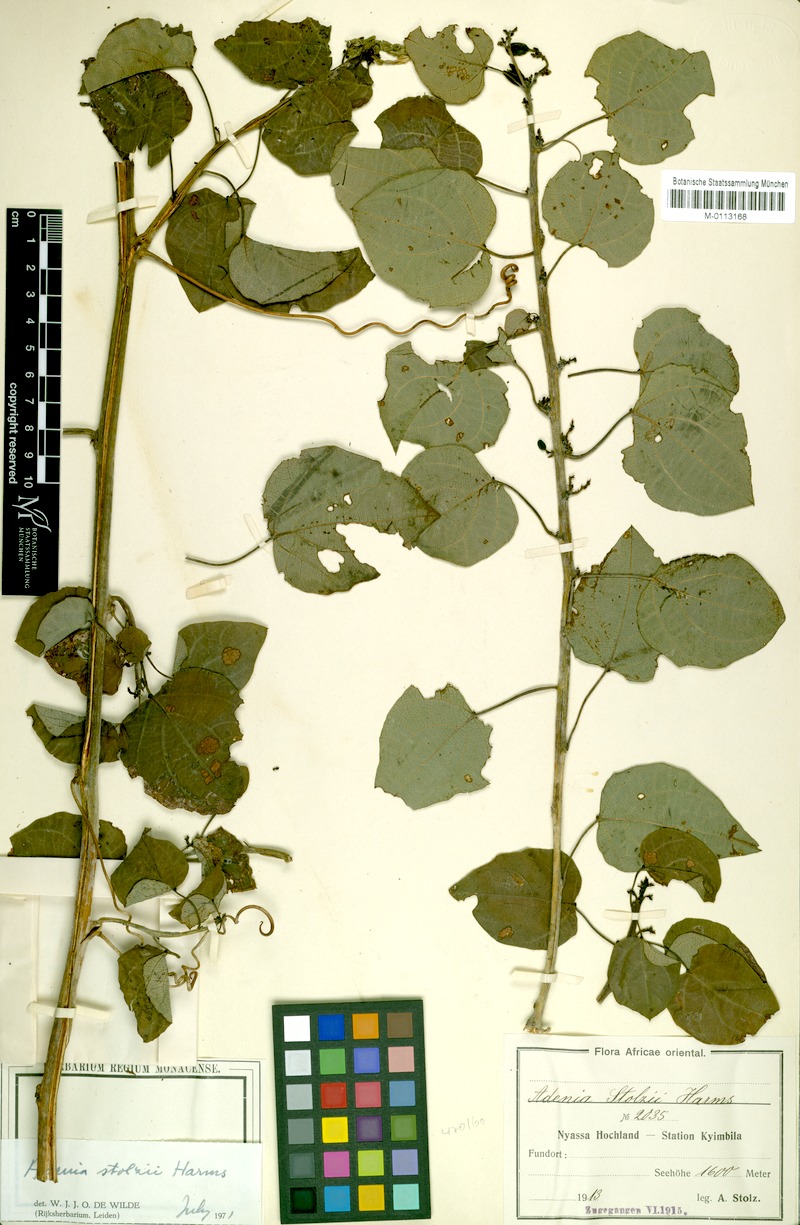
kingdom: Plantae
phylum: Tracheophyta
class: Magnoliopsida
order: Malpighiales
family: Passifloraceae
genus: Adenia
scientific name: Adenia stolzii
